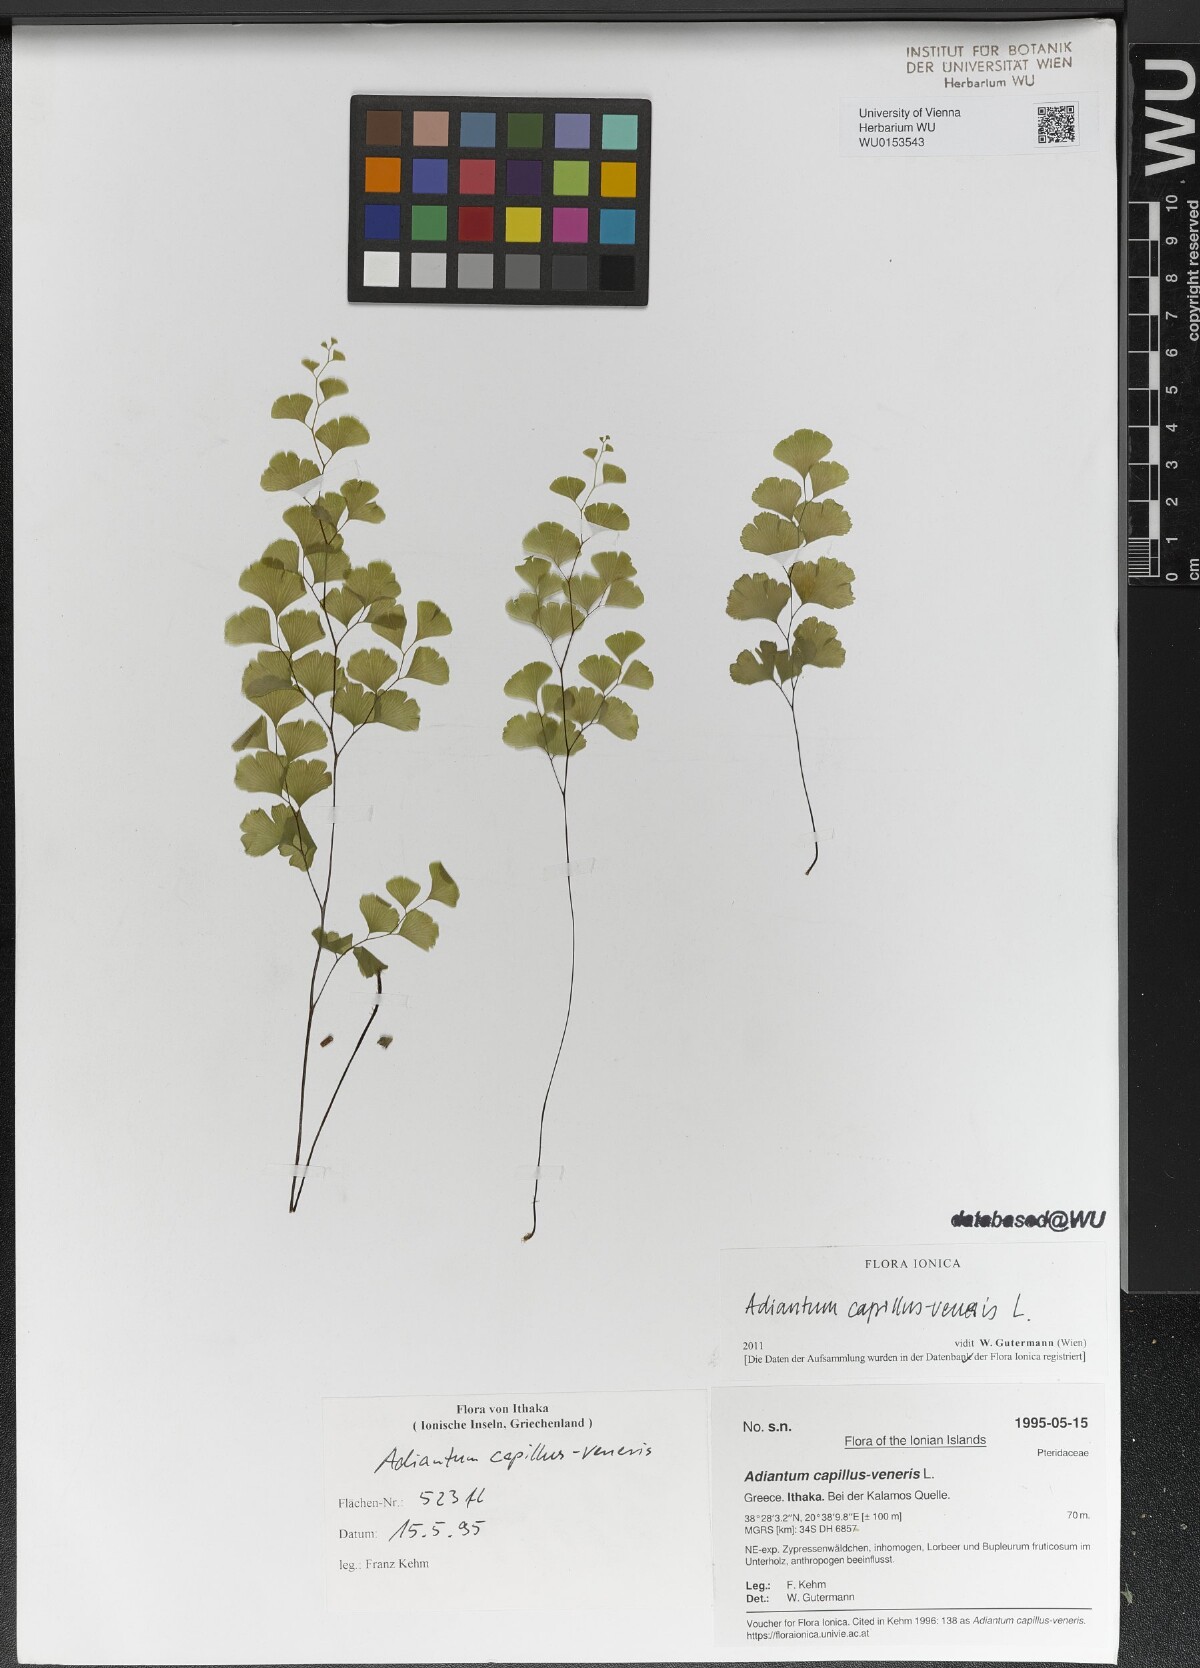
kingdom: Plantae
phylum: Tracheophyta
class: Polypodiopsida
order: Polypodiales
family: Pteridaceae
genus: Adiantum
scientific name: Adiantum capillus-veneris
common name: Maidenhair fern
